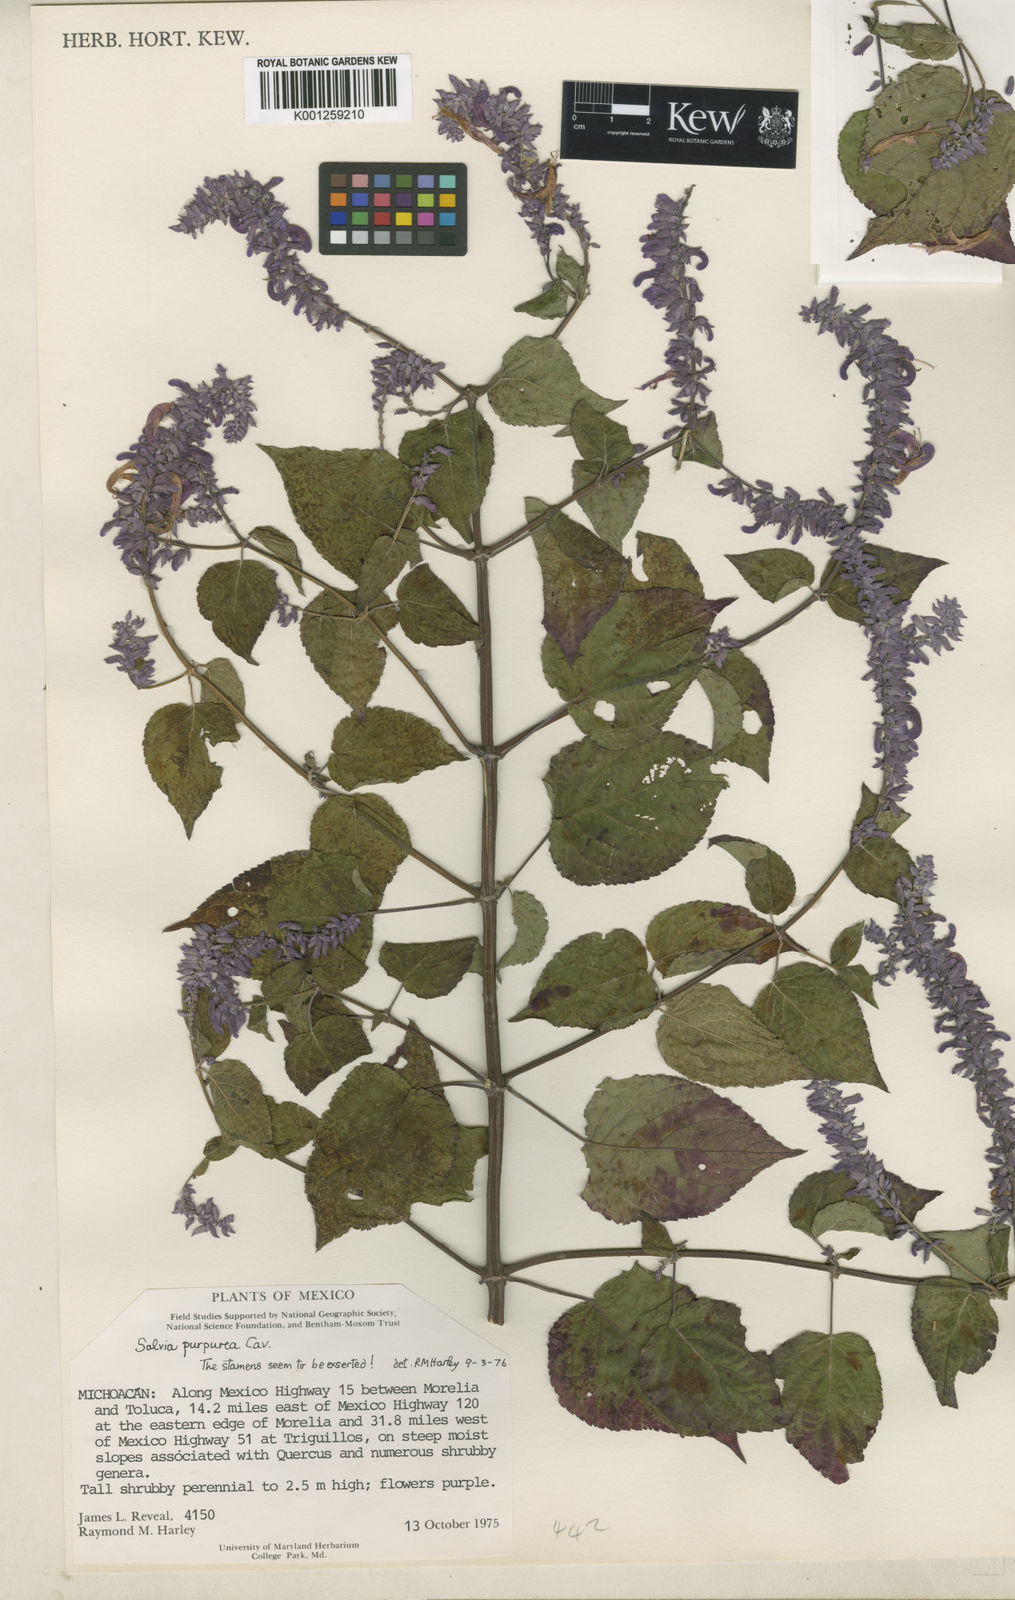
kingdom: Plantae
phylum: Tracheophyta
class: Magnoliopsida
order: Lamiales
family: Lamiaceae
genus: Salvia
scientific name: Salvia
